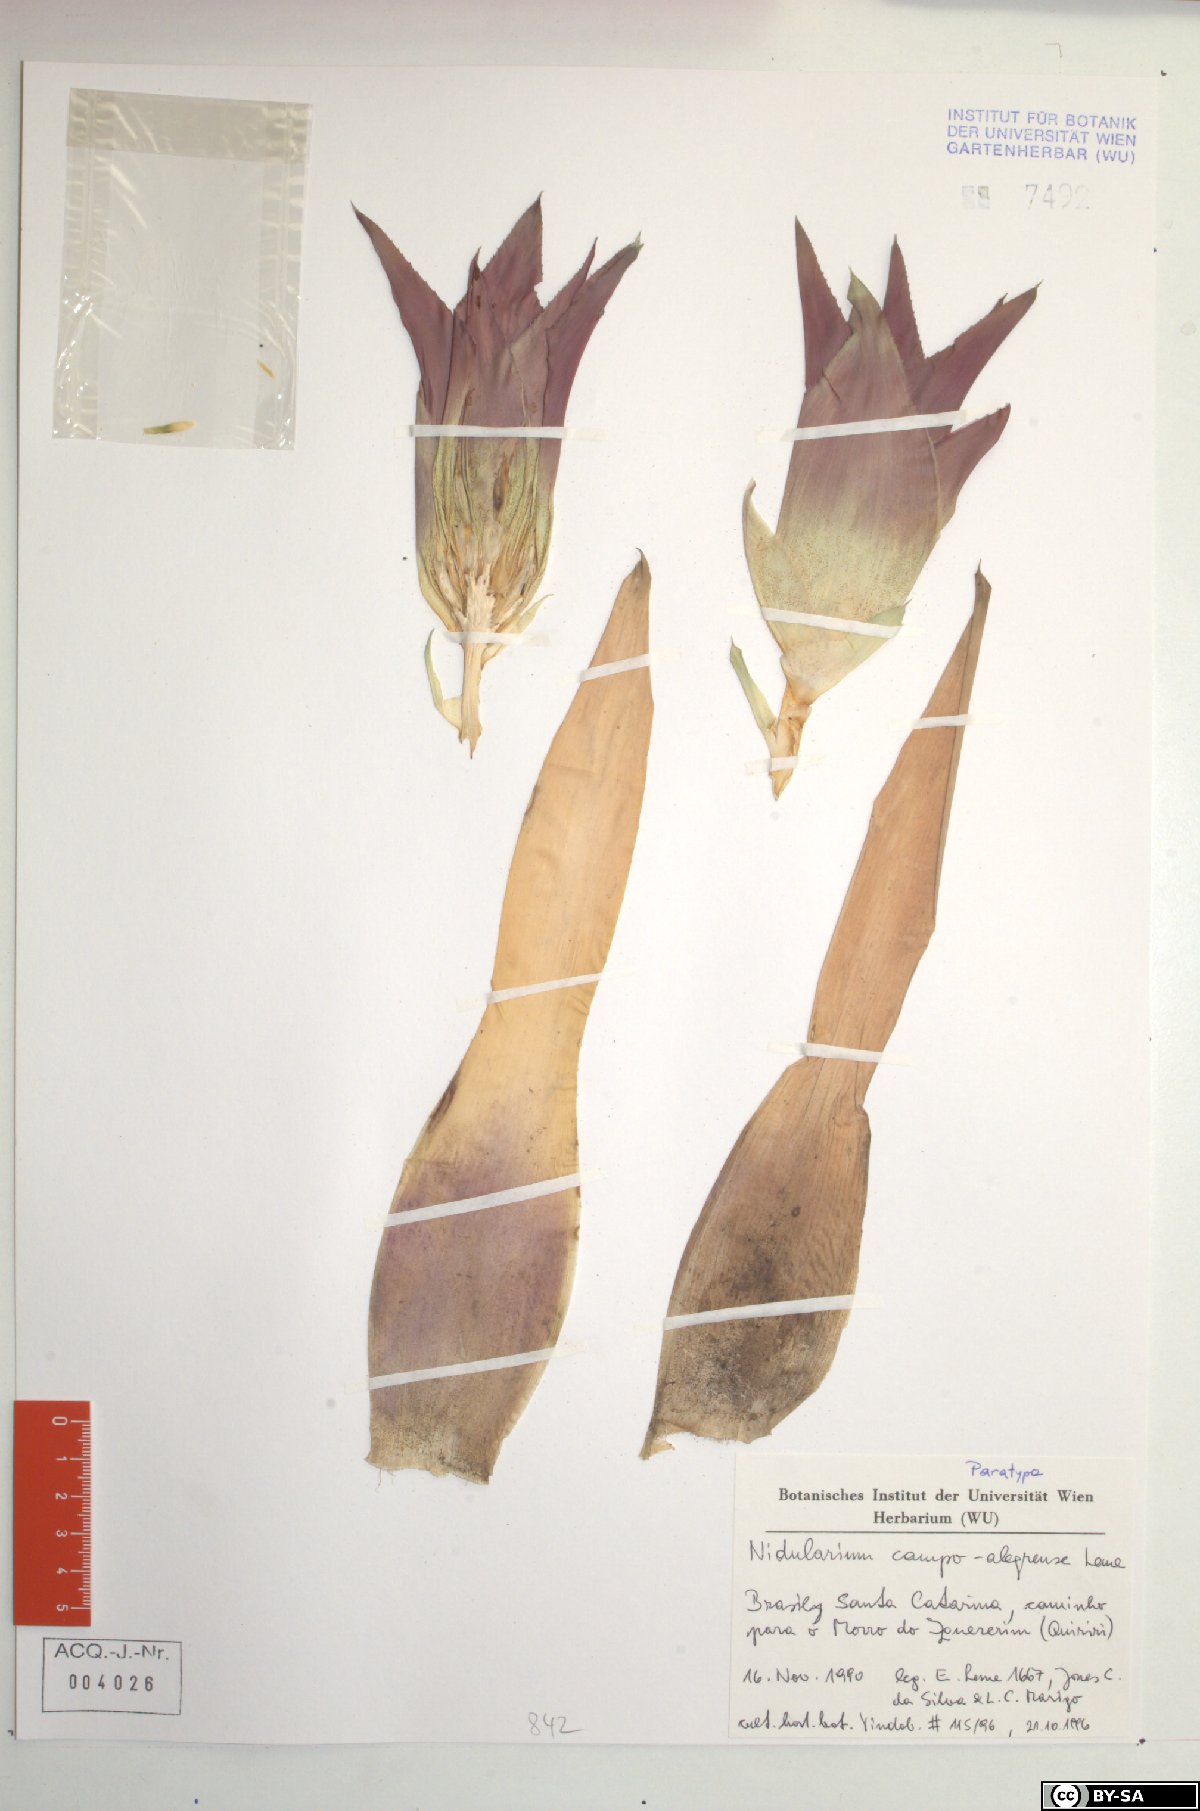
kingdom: Plantae
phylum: Tracheophyta
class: Liliopsida
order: Poales
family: Bromeliaceae
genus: Nidularium
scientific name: Nidularium campo-alegrense
